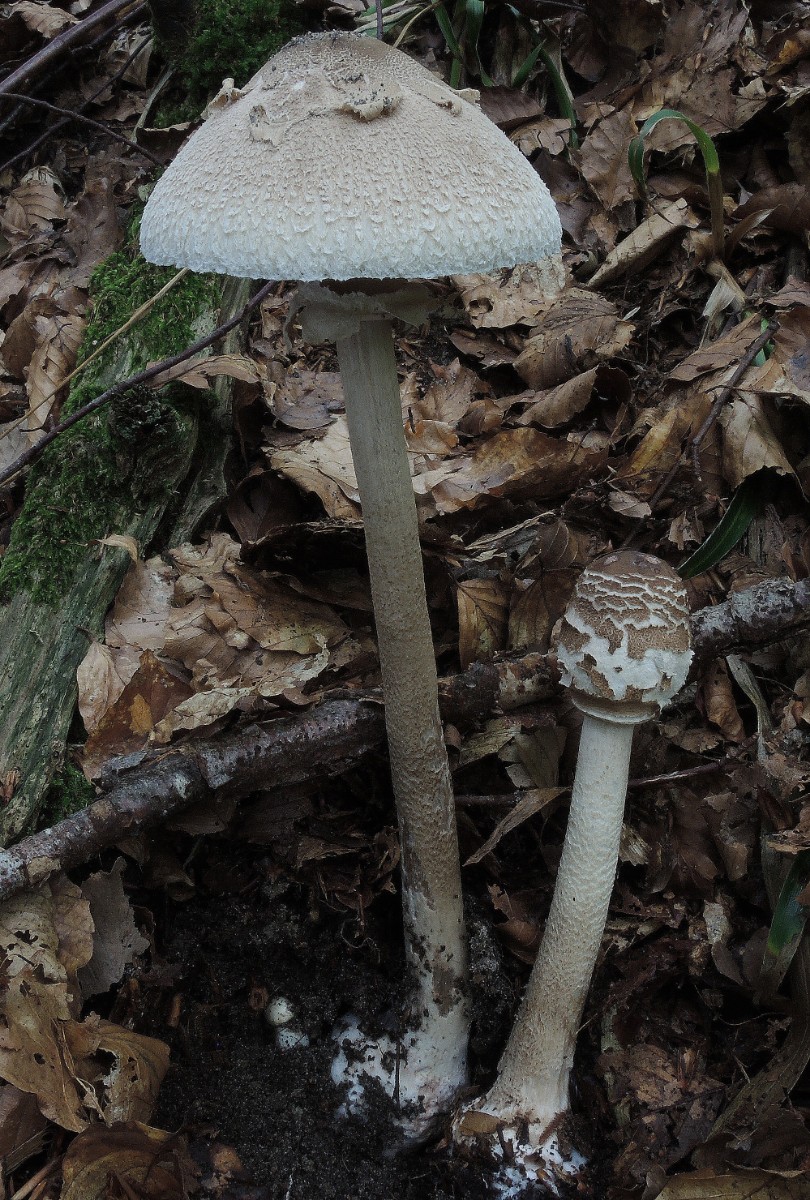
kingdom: Fungi
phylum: Basidiomycota
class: Agaricomycetes
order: Agaricales
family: Agaricaceae
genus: Macrolepiota
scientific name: Macrolepiota fuliginosa
